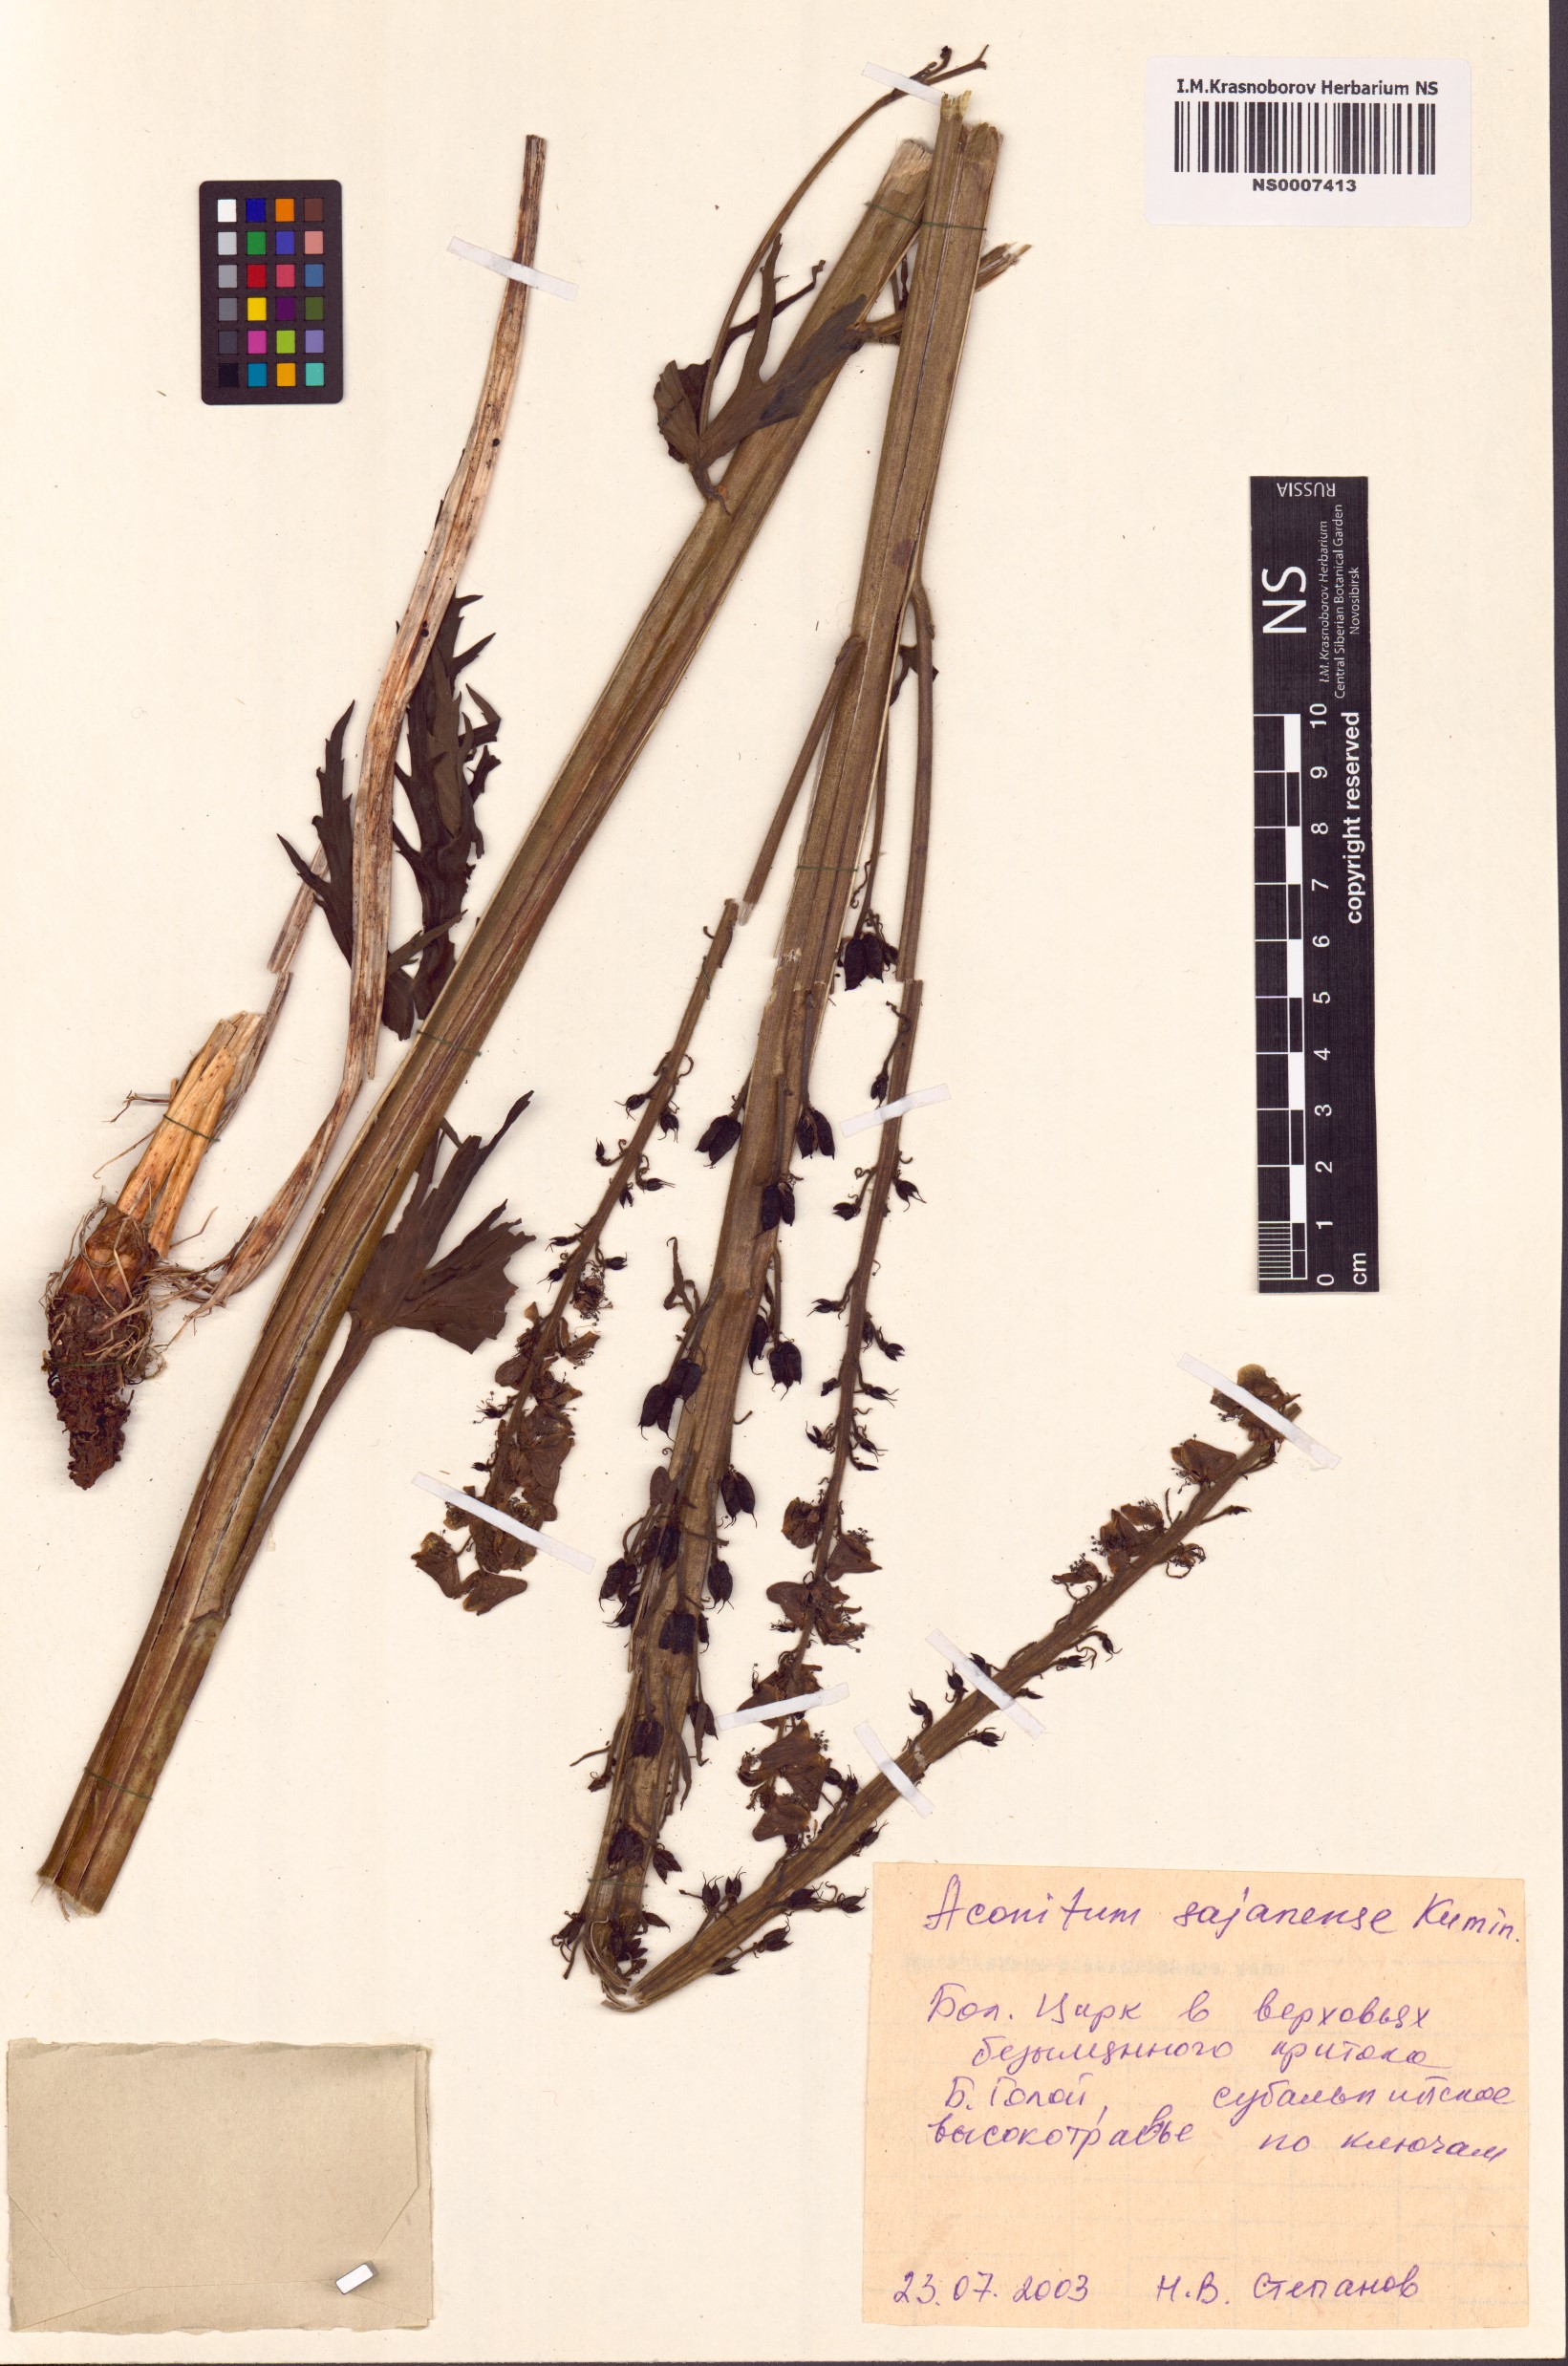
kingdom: Plantae
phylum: Tracheophyta
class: Magnoliopsida
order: Ranunculales
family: Ranunculaceae
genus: Aconitum
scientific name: Aconitum sajanense
